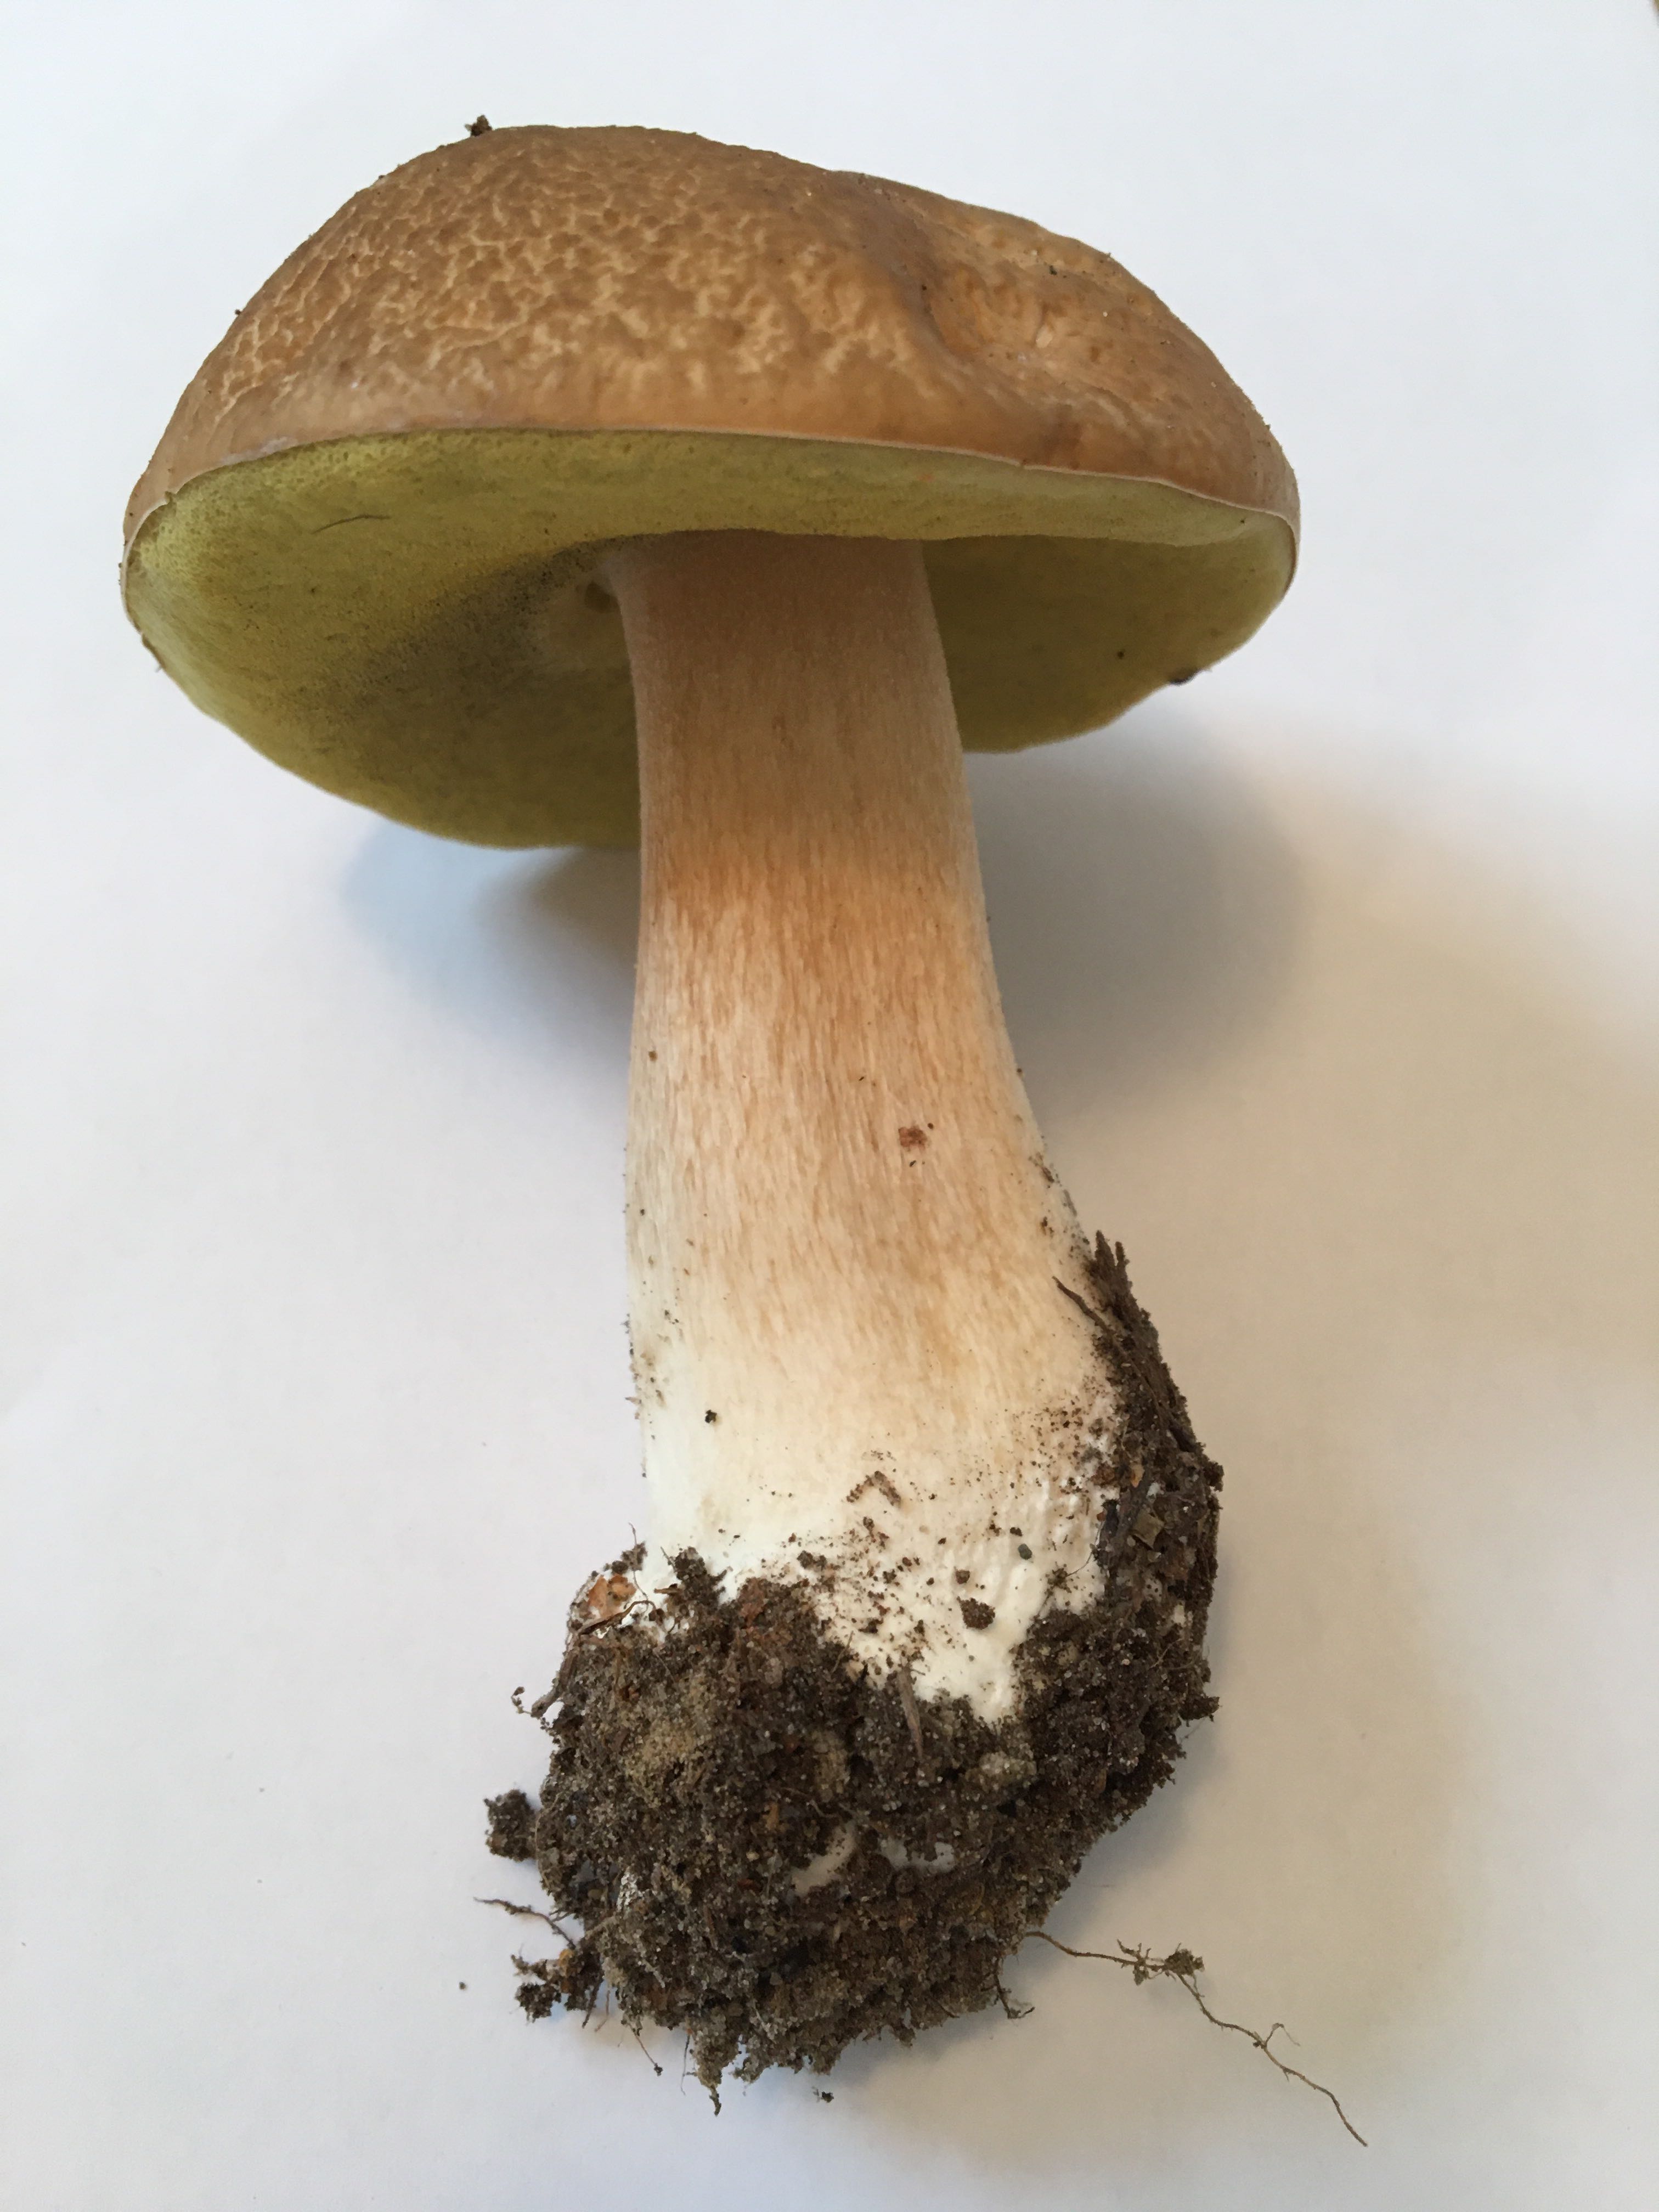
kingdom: Fungi
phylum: Basidiomycota
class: Agaricomycetes
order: Boletales
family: Boletaceae
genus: Boletus
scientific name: Boletus edulis
